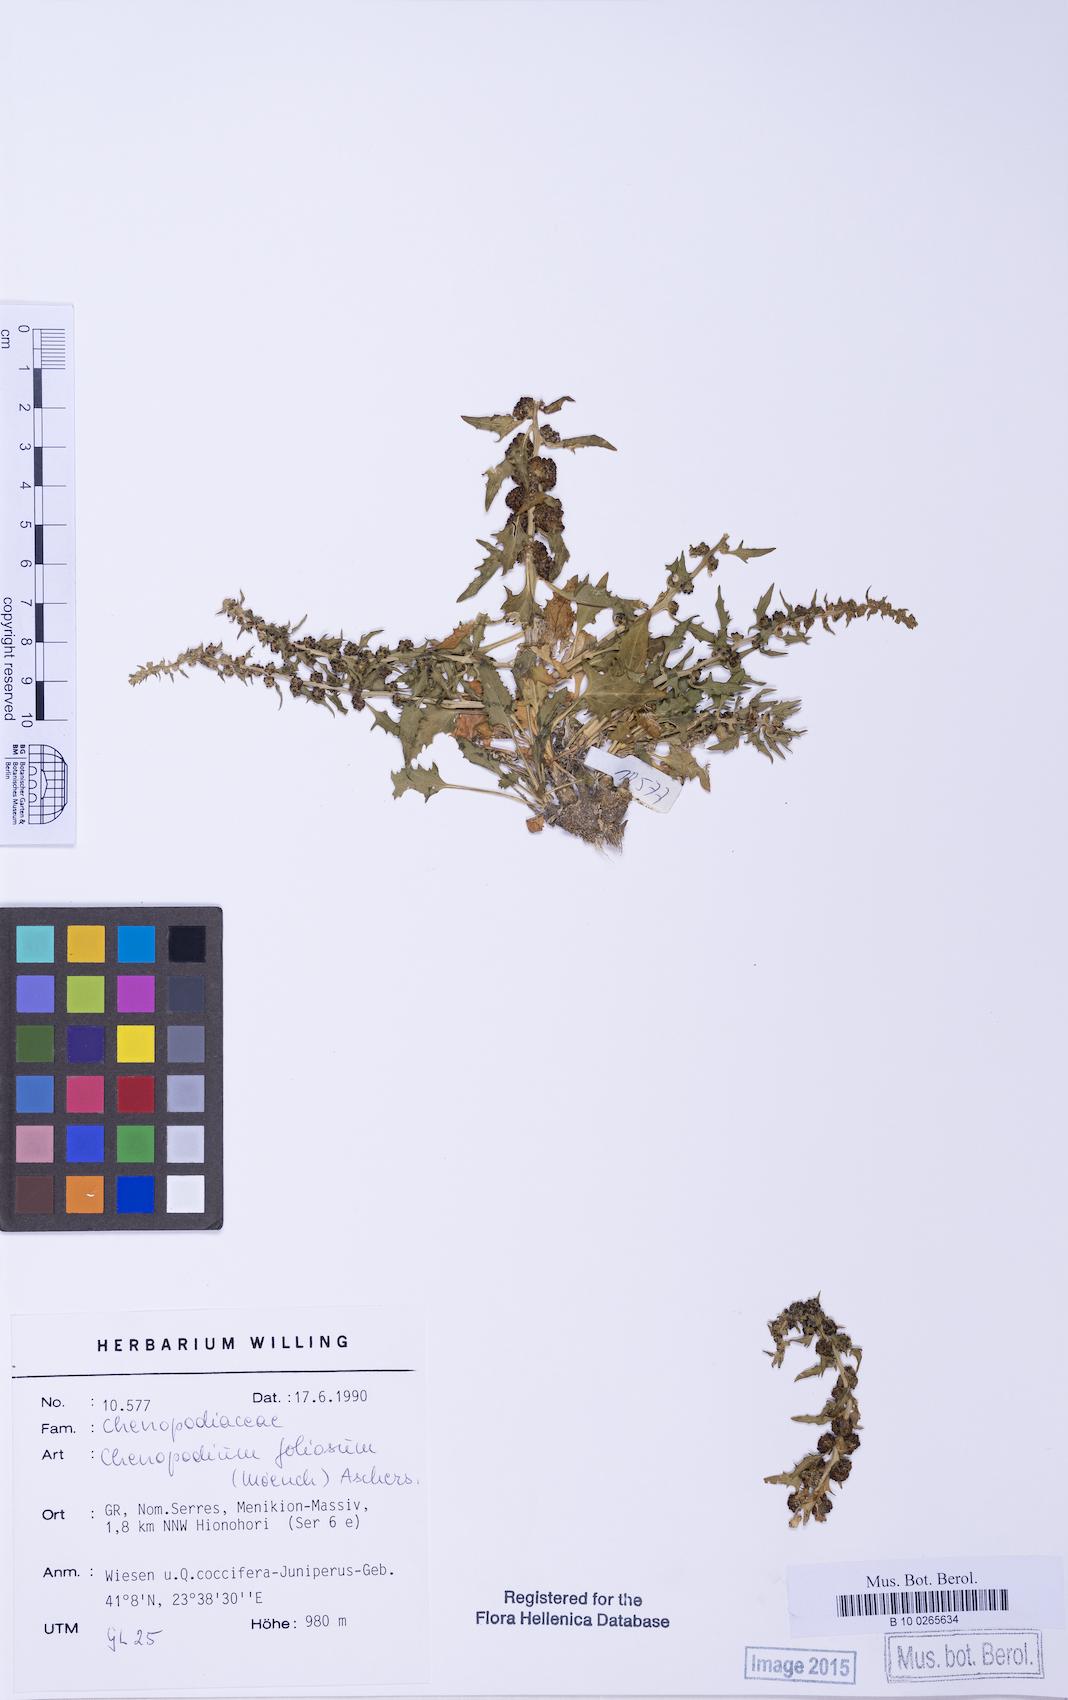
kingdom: Plantae
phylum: Tracheophyta
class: Magnoliopsida
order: Caryophyllales
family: Amaranthaceae
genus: Blitum
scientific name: Blitum virgatum
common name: Strawberry goosefoot
